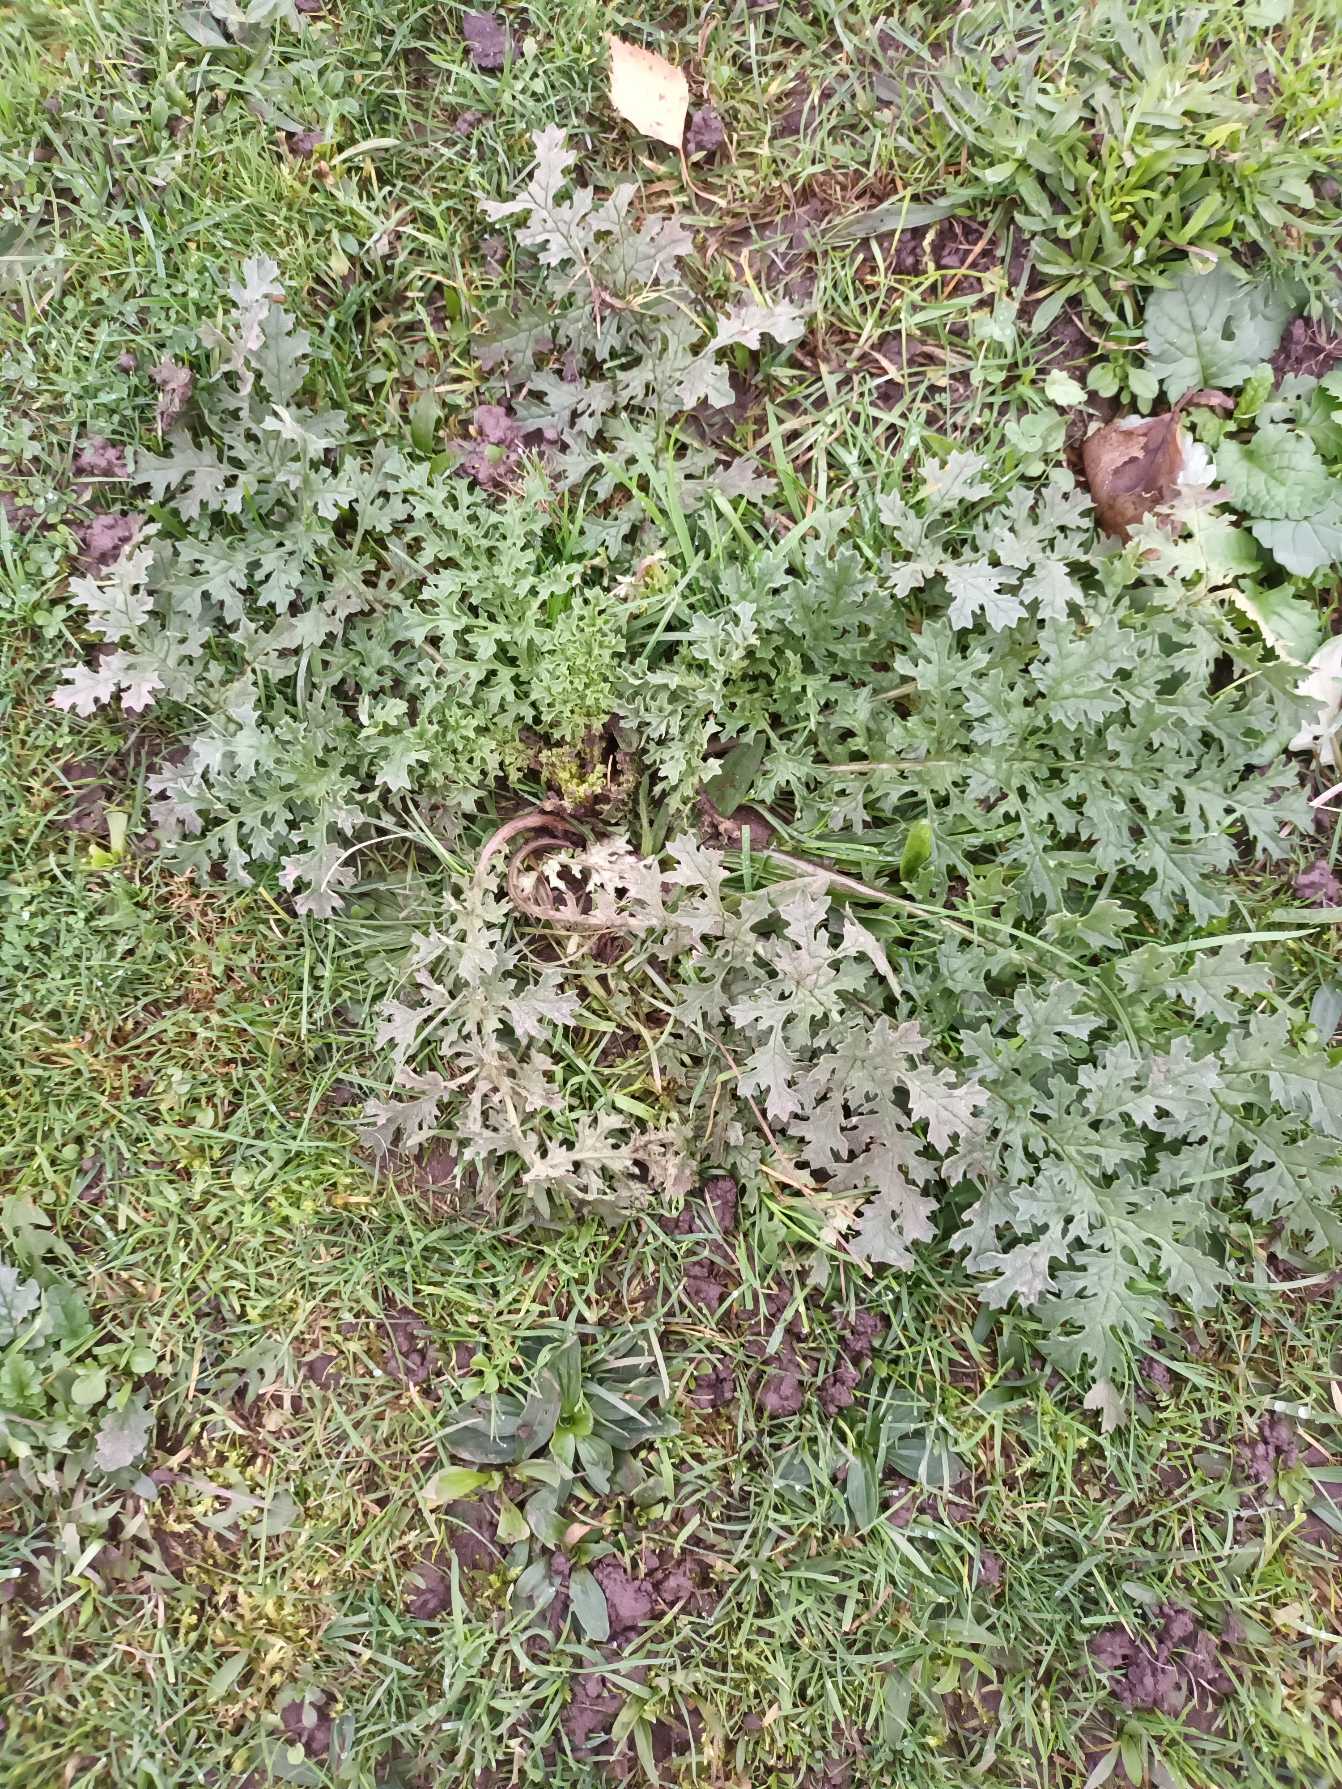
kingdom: Plantae
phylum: Tracheophyta
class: Magnoliopsida
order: Asterales
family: Asteraceae
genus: Jacobaea
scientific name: Jacobaea vulgaris
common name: Eng-brandbæger
